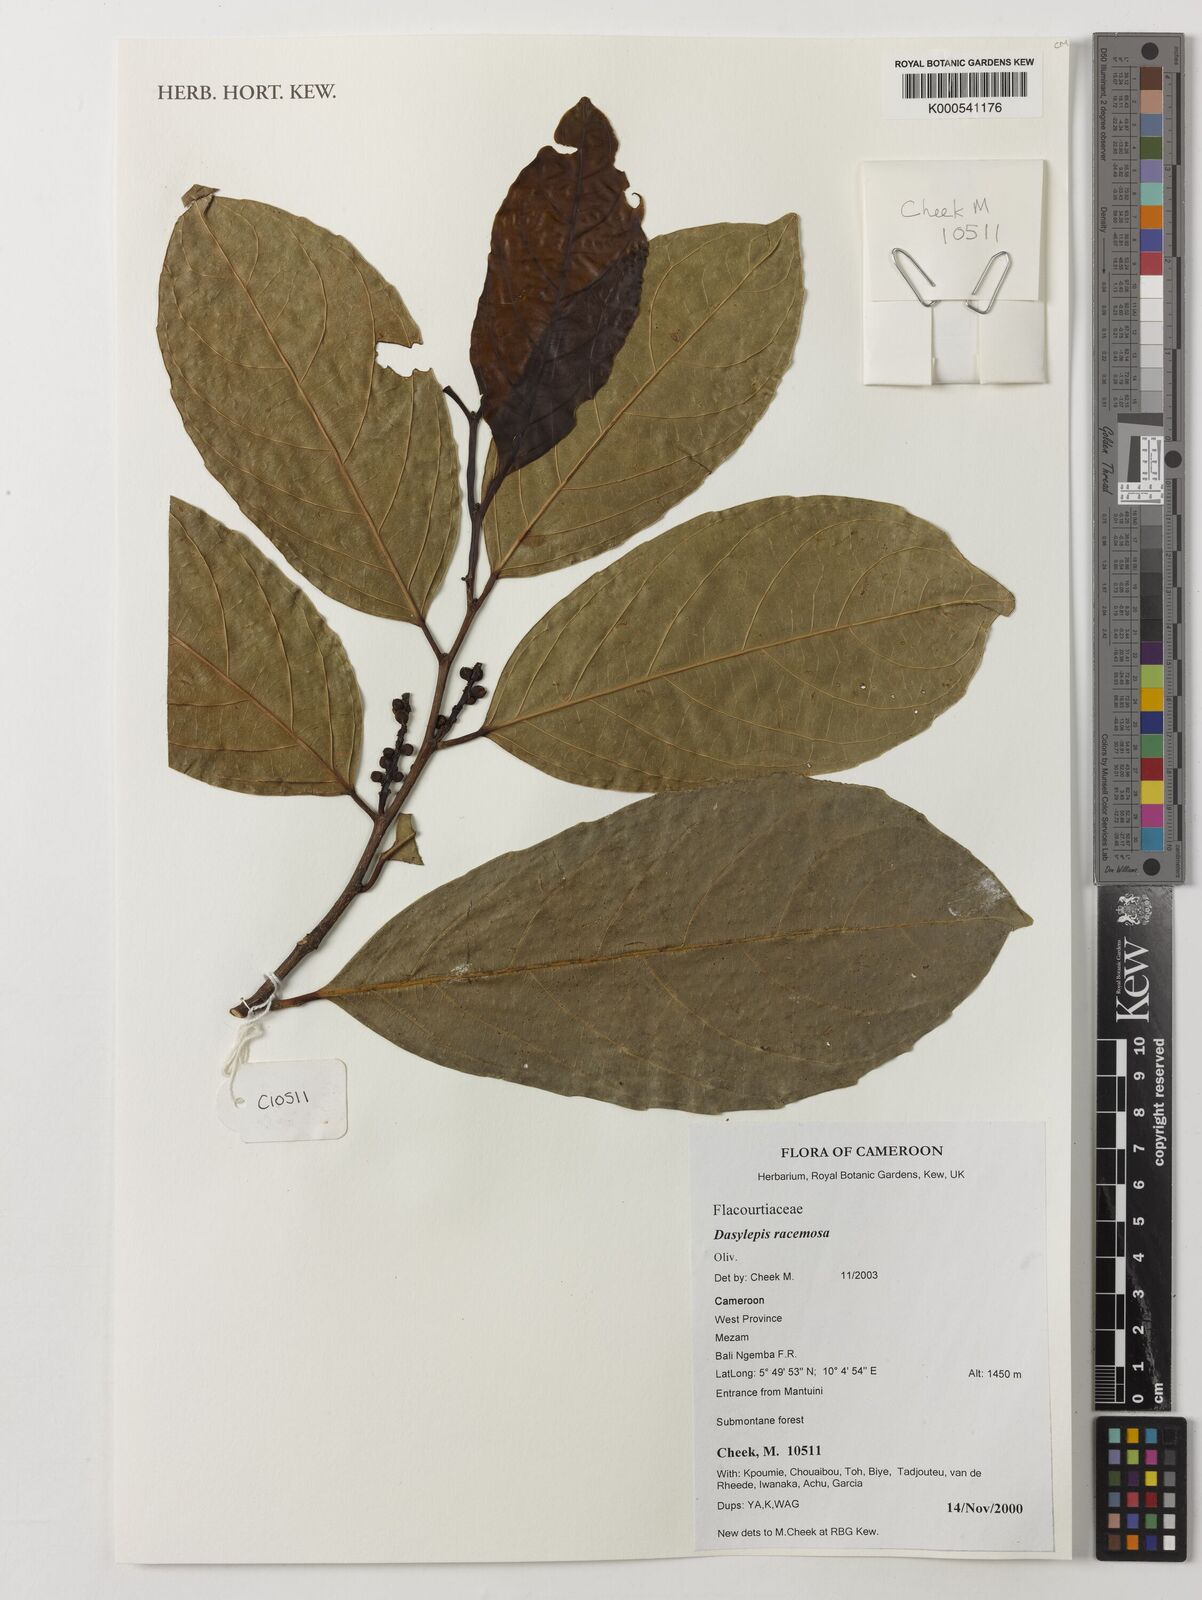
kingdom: Plantae
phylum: Tracheophyta
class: Magnoliopsida
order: Malpighiales
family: Achariaceae
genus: Dasylepis
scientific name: Dasylepis racemosa
